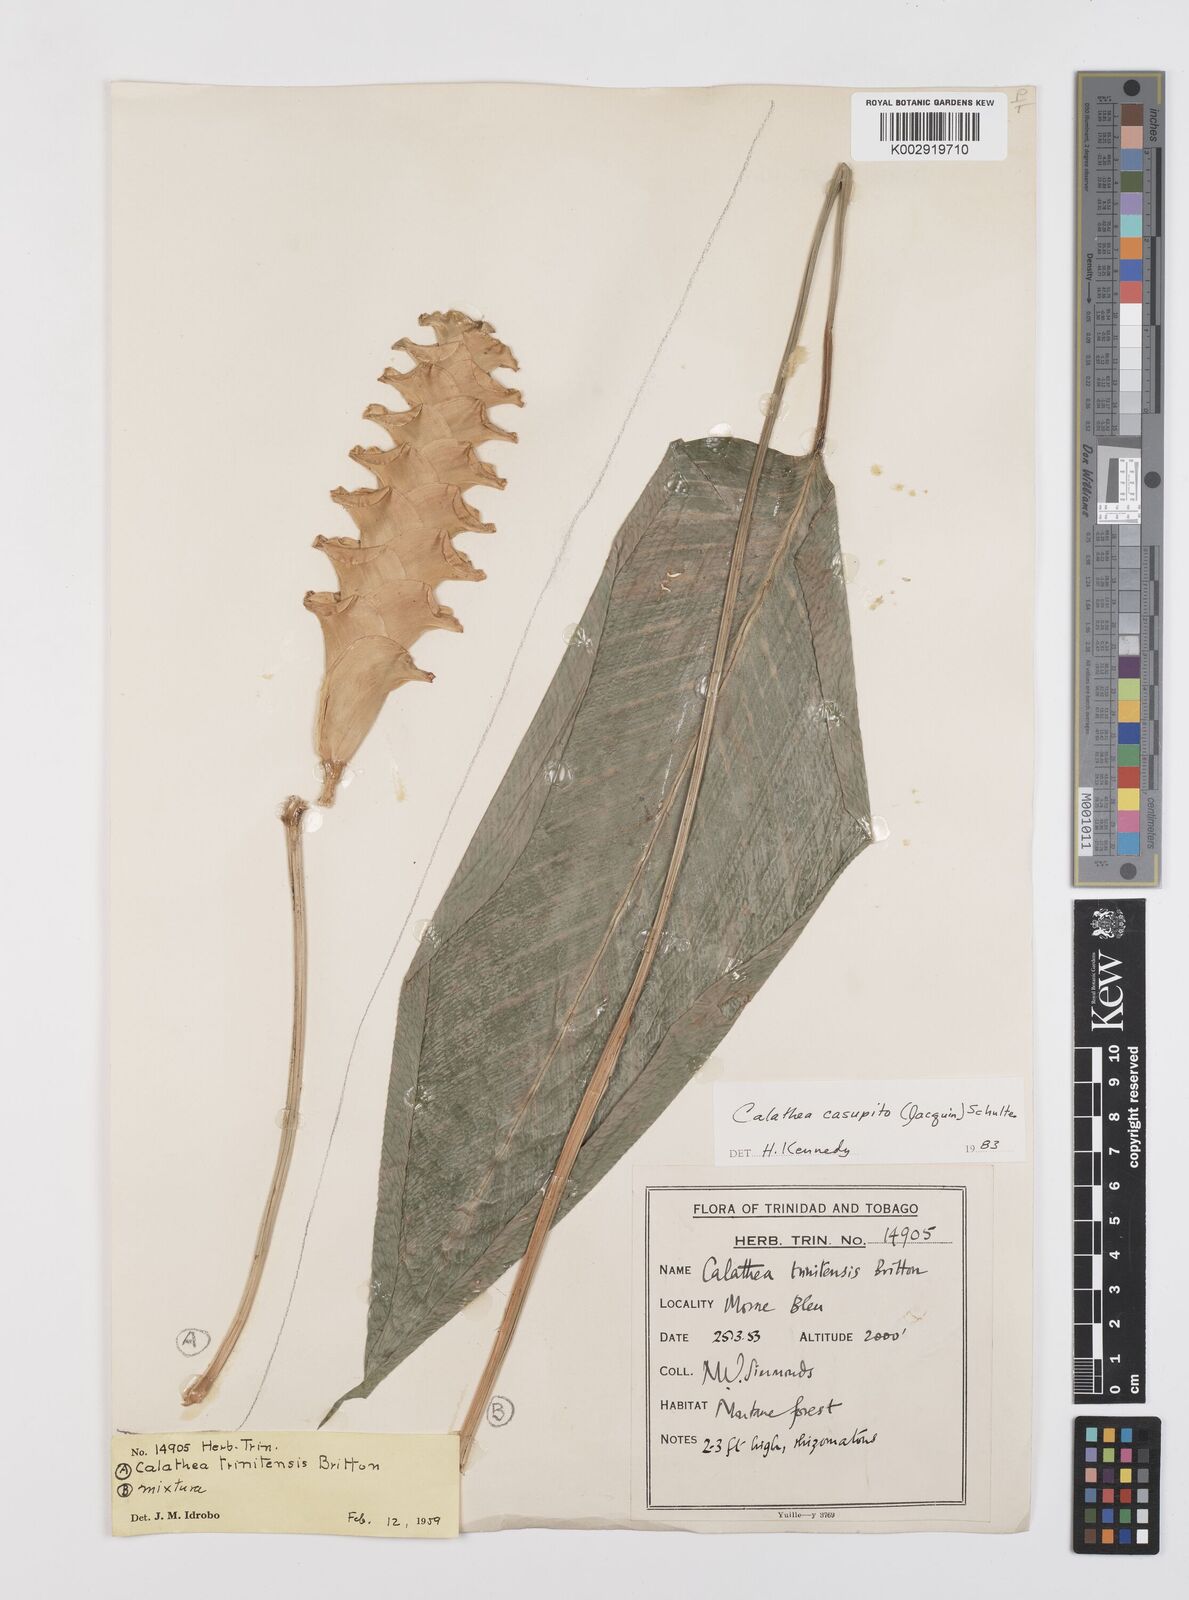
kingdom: Plantae
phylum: Tracheophyta
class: Liliopsida
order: Zingiberales
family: Marantaceae
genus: Calathea
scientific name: Calathea casupito
